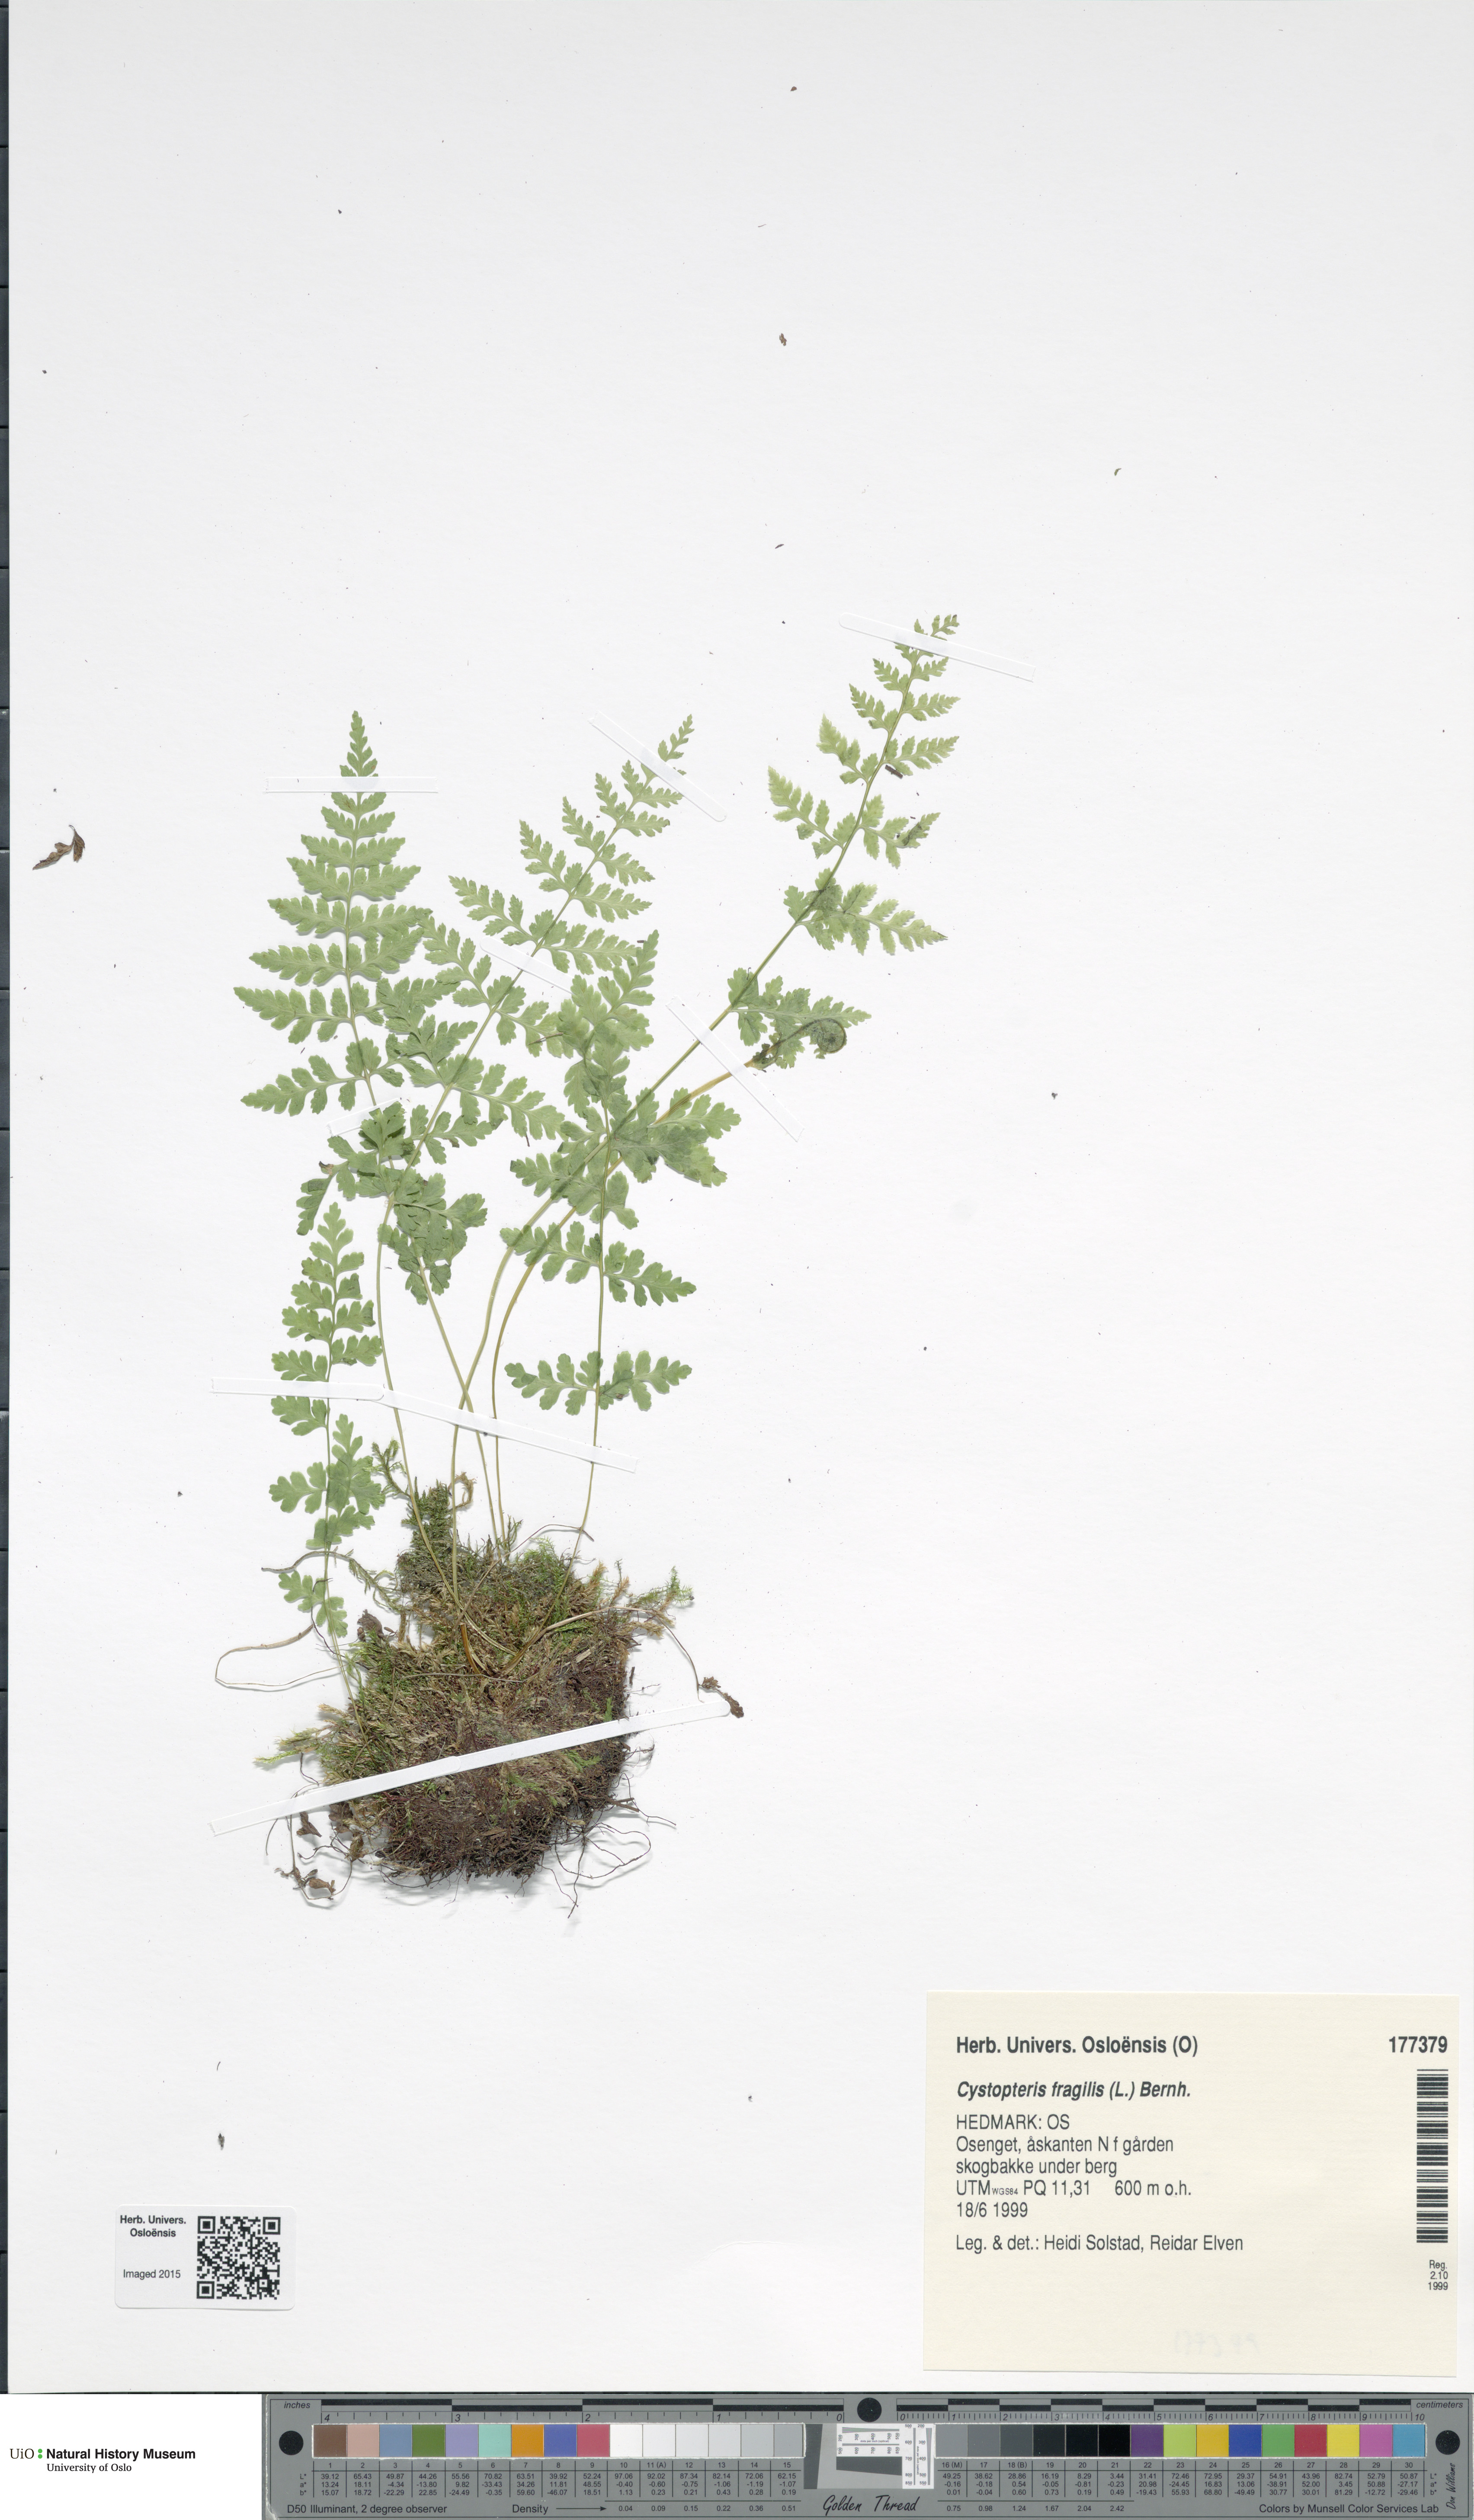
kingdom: Plantae
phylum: Tracheophyta
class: Polypodiopsida
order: Polypodiales
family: Cystopteridaceae
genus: Cystopteris
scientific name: Cystopteris fragilis
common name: Brittle bladder fern
